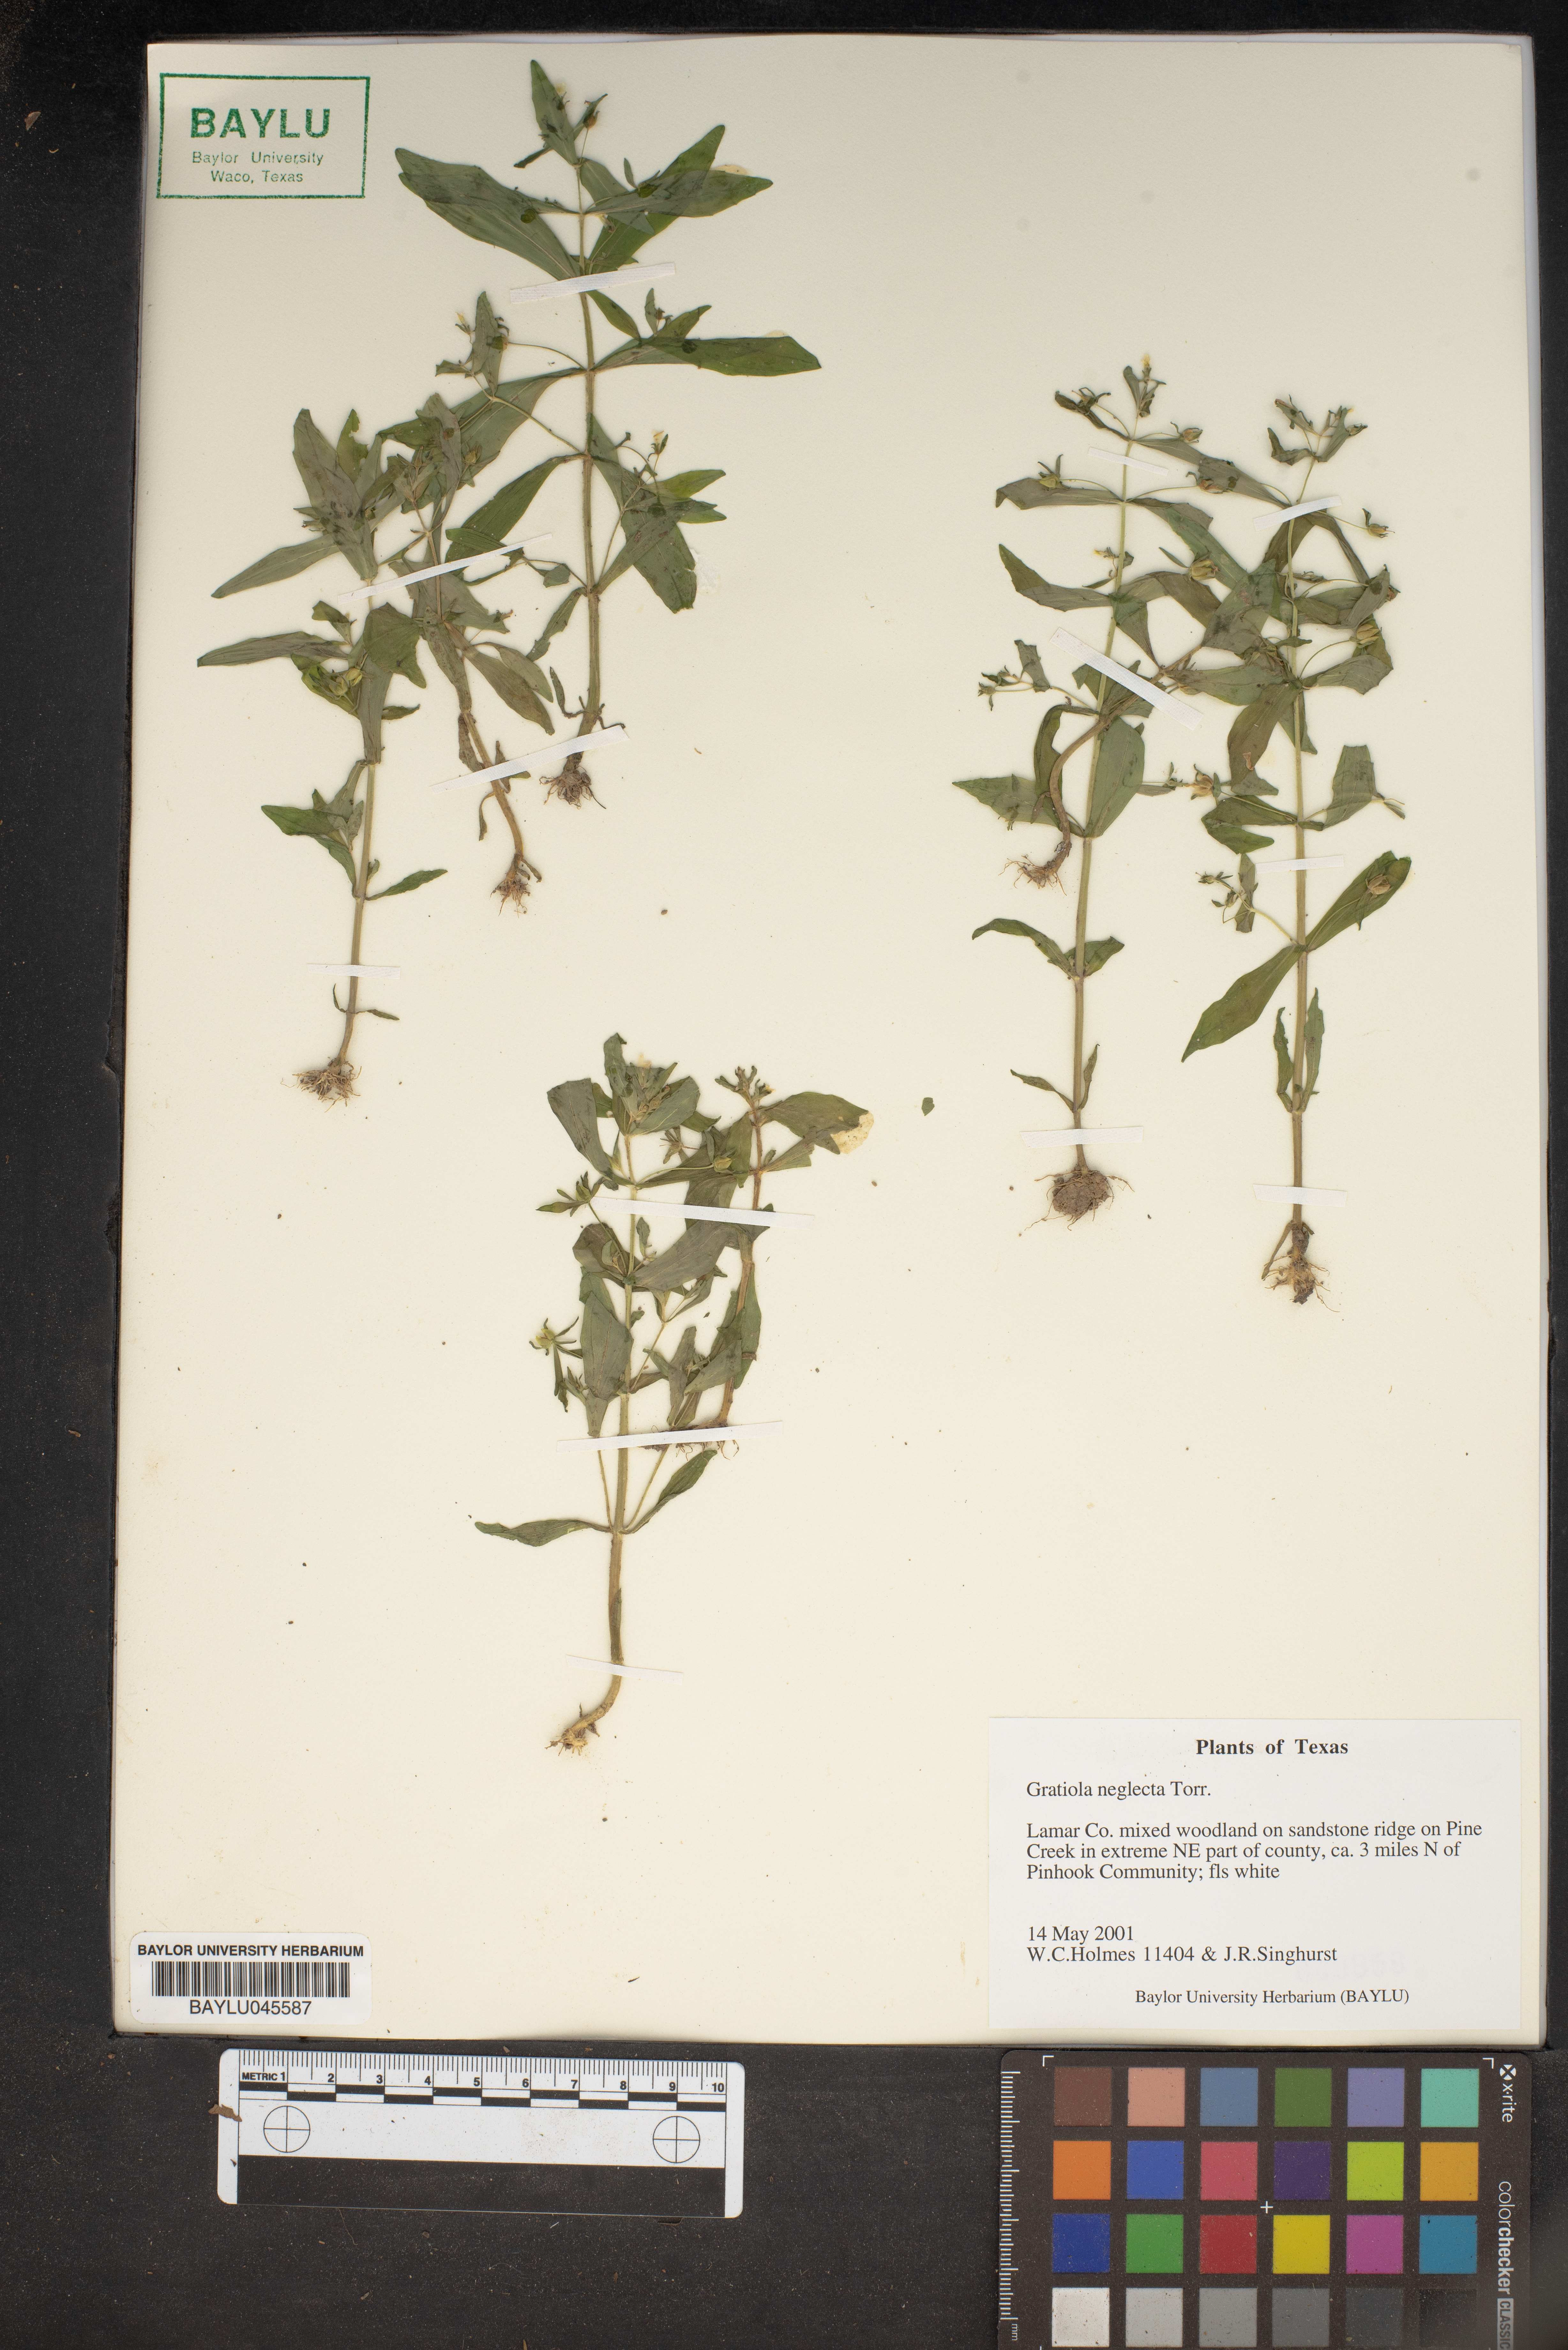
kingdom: Plantae
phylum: Tracheophyta
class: Magnoliopsida
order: Lamiales
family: Plantaginaceae
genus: Gratiola
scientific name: Gratiola neglecta
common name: American hedge-hyssop
